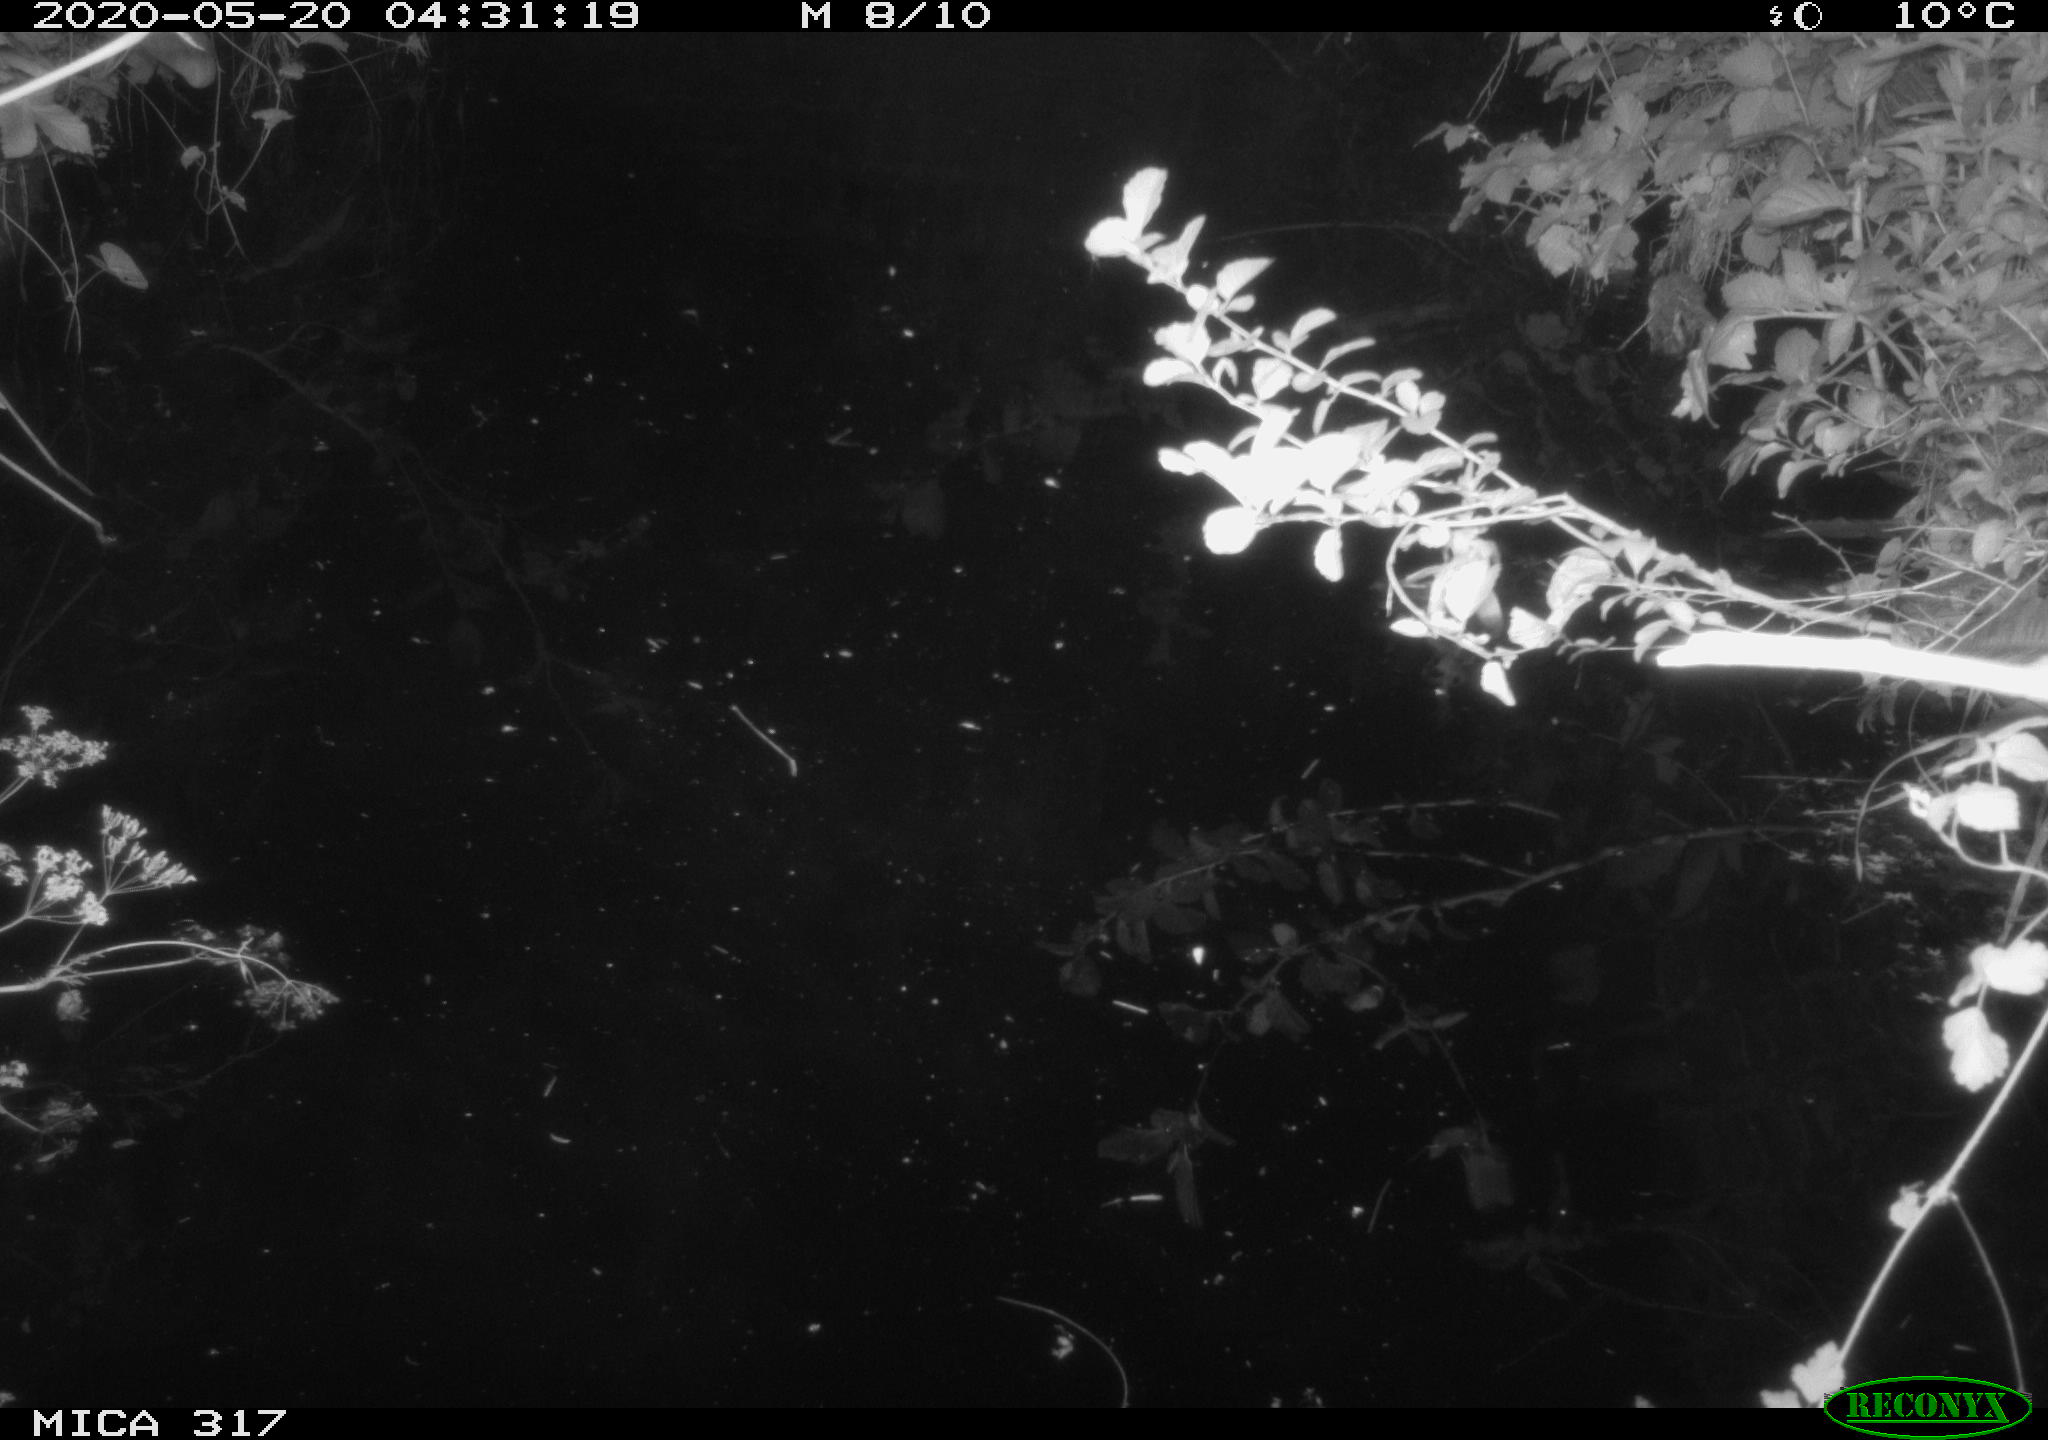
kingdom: Animalia
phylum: Chordata
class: Aves
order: Anseriformes
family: Anatidae
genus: Anas
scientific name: Anas platyrhynchos
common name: Mallard
